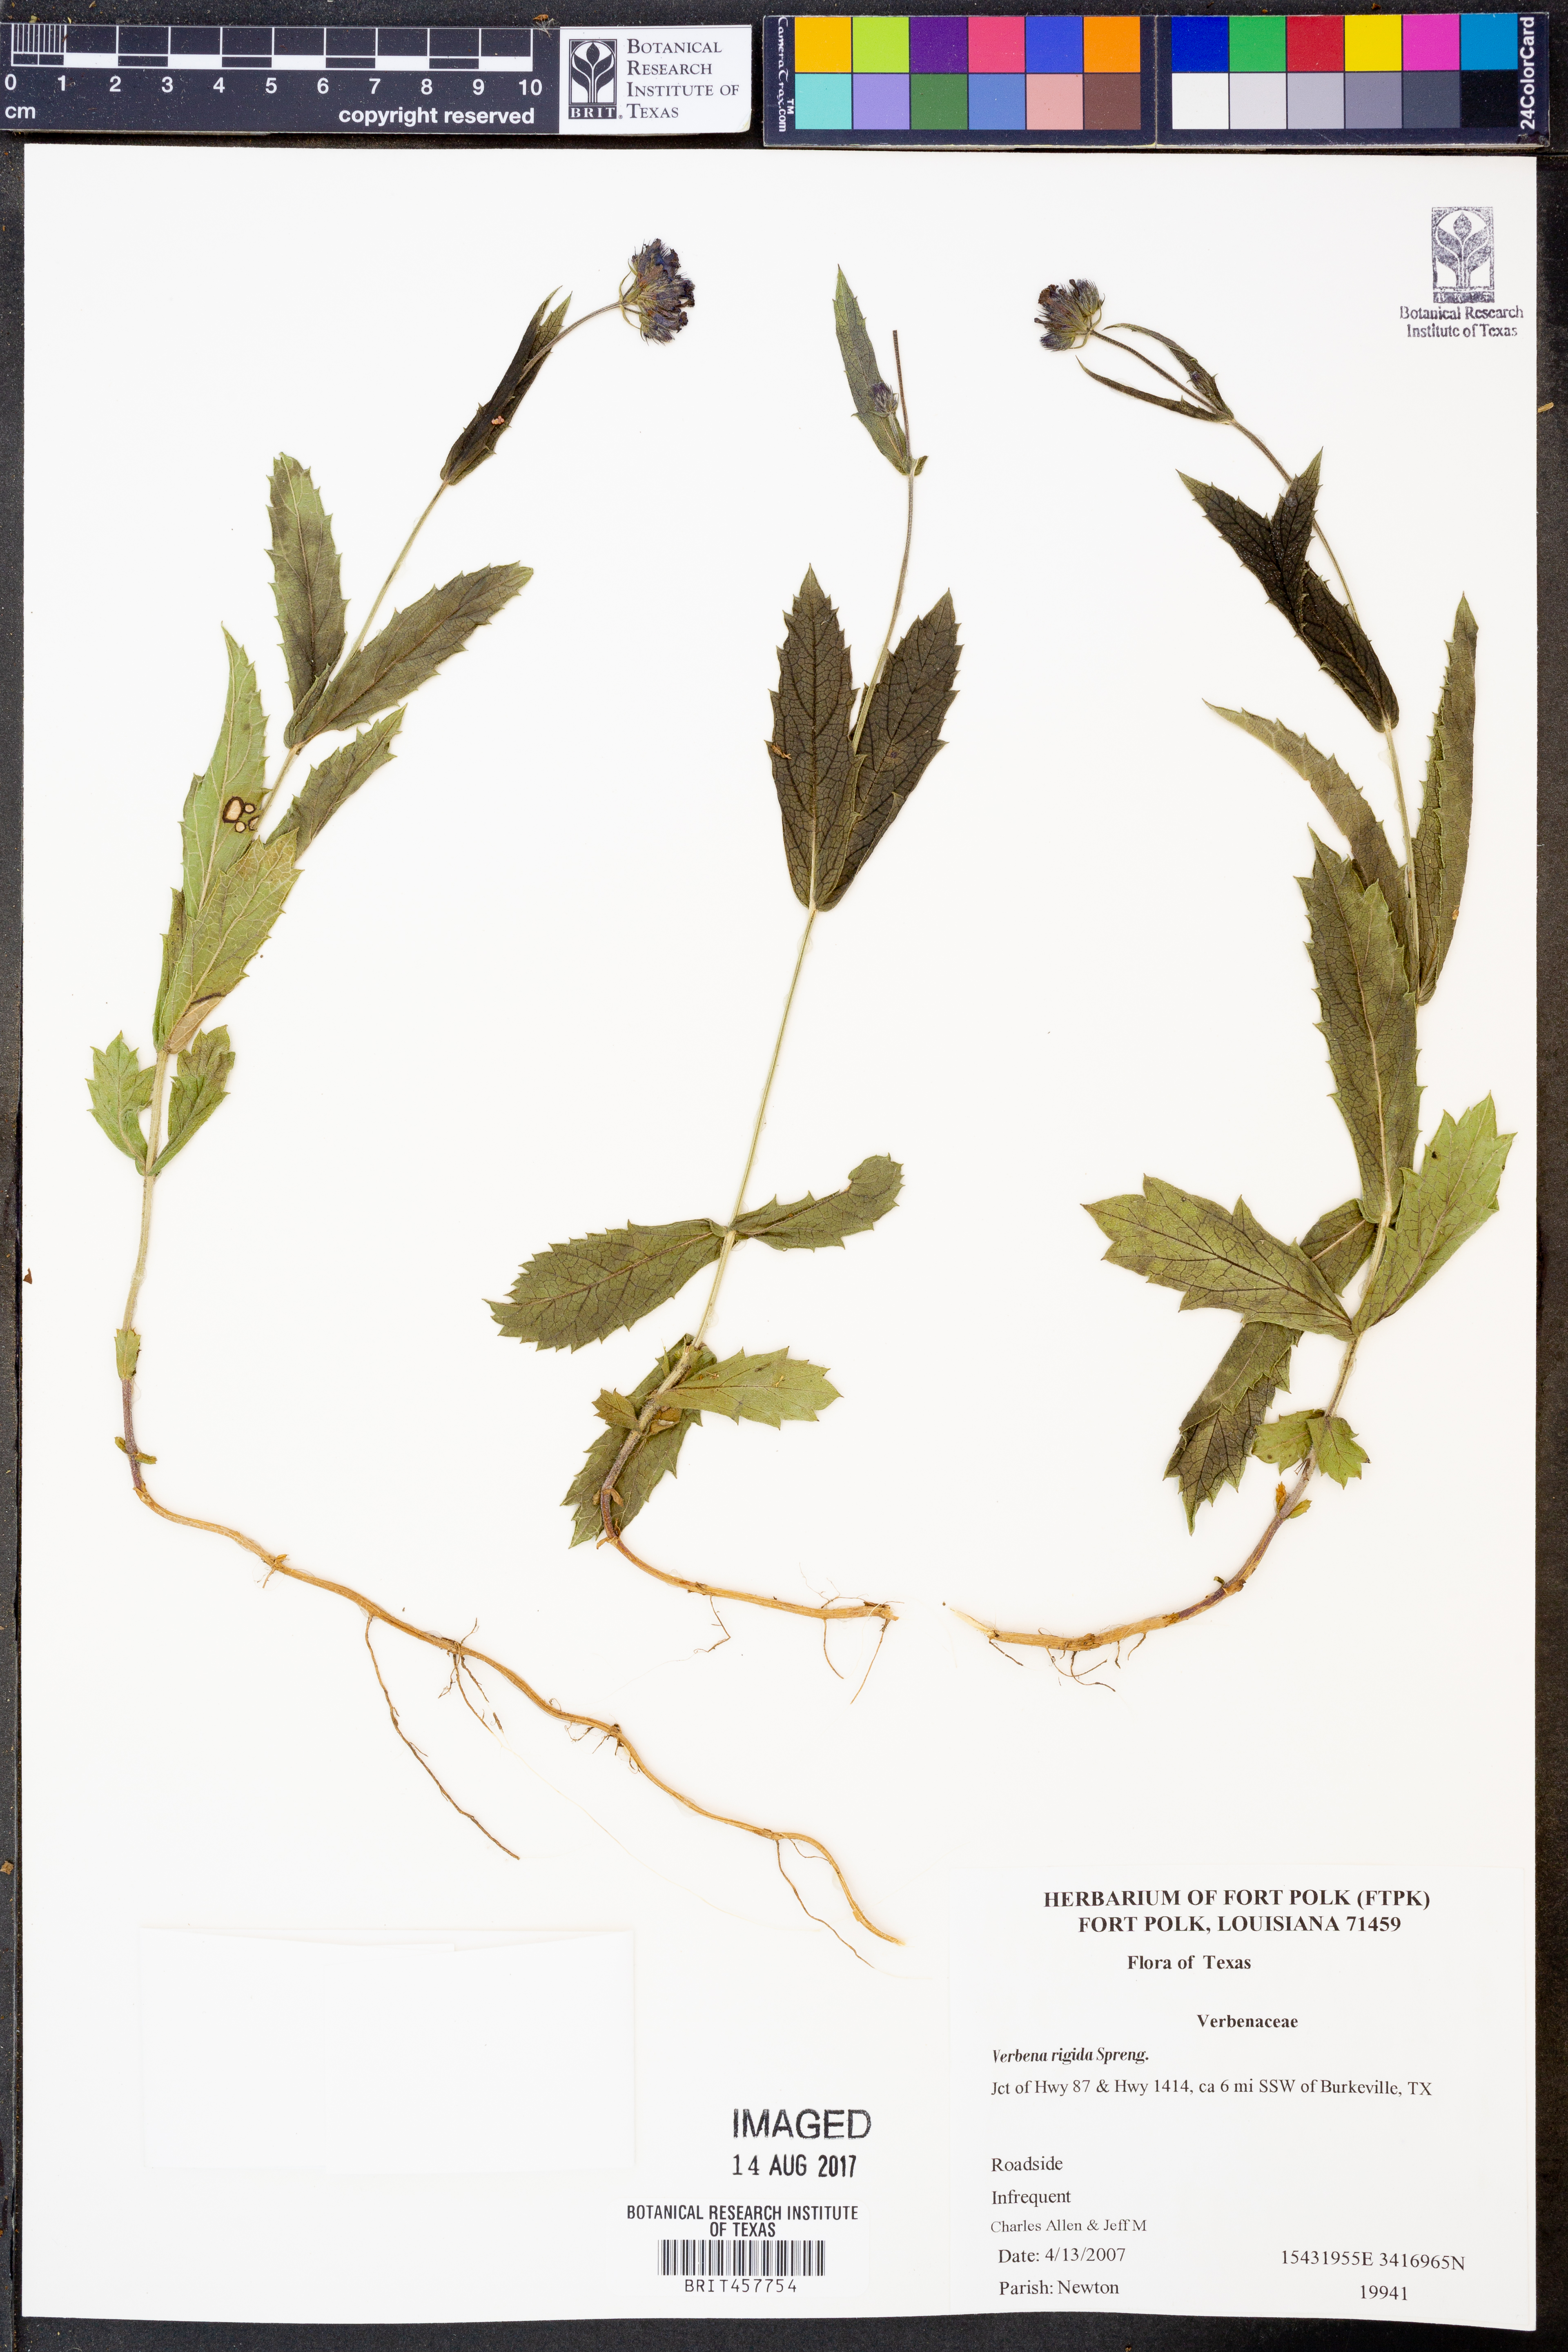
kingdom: Plantae
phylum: Tracheophyta
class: Magnoliopsida
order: Lamiales
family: Verbenaceae
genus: Verbena
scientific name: Verbena rigida
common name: Slender vervain
